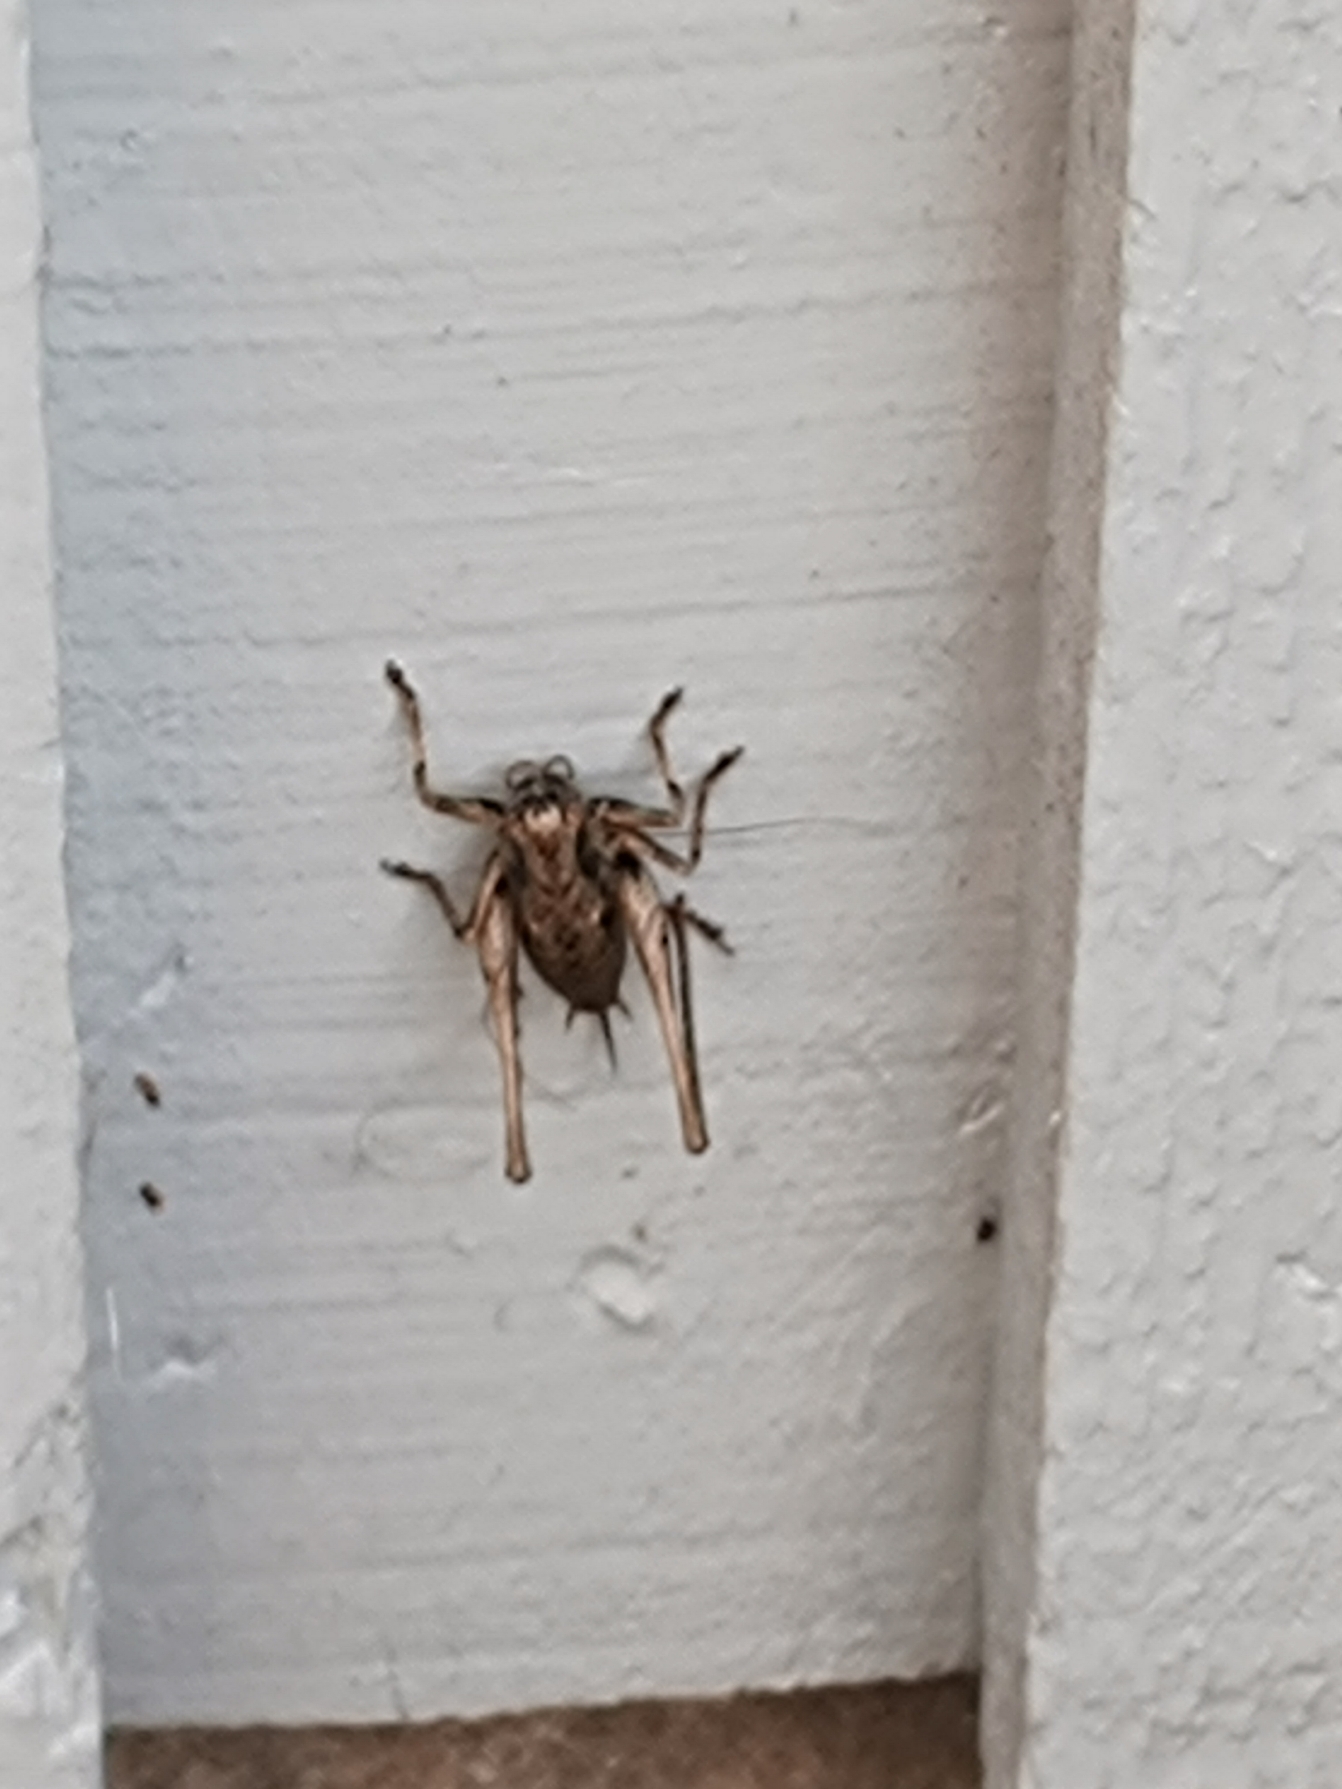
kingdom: Animalia
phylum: Arthropoda
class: Insecta
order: Orthoptera
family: Tettigoniidae
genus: Pholidoptera
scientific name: Pholidoptera griseoaptera
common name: Buskgræshoppe
